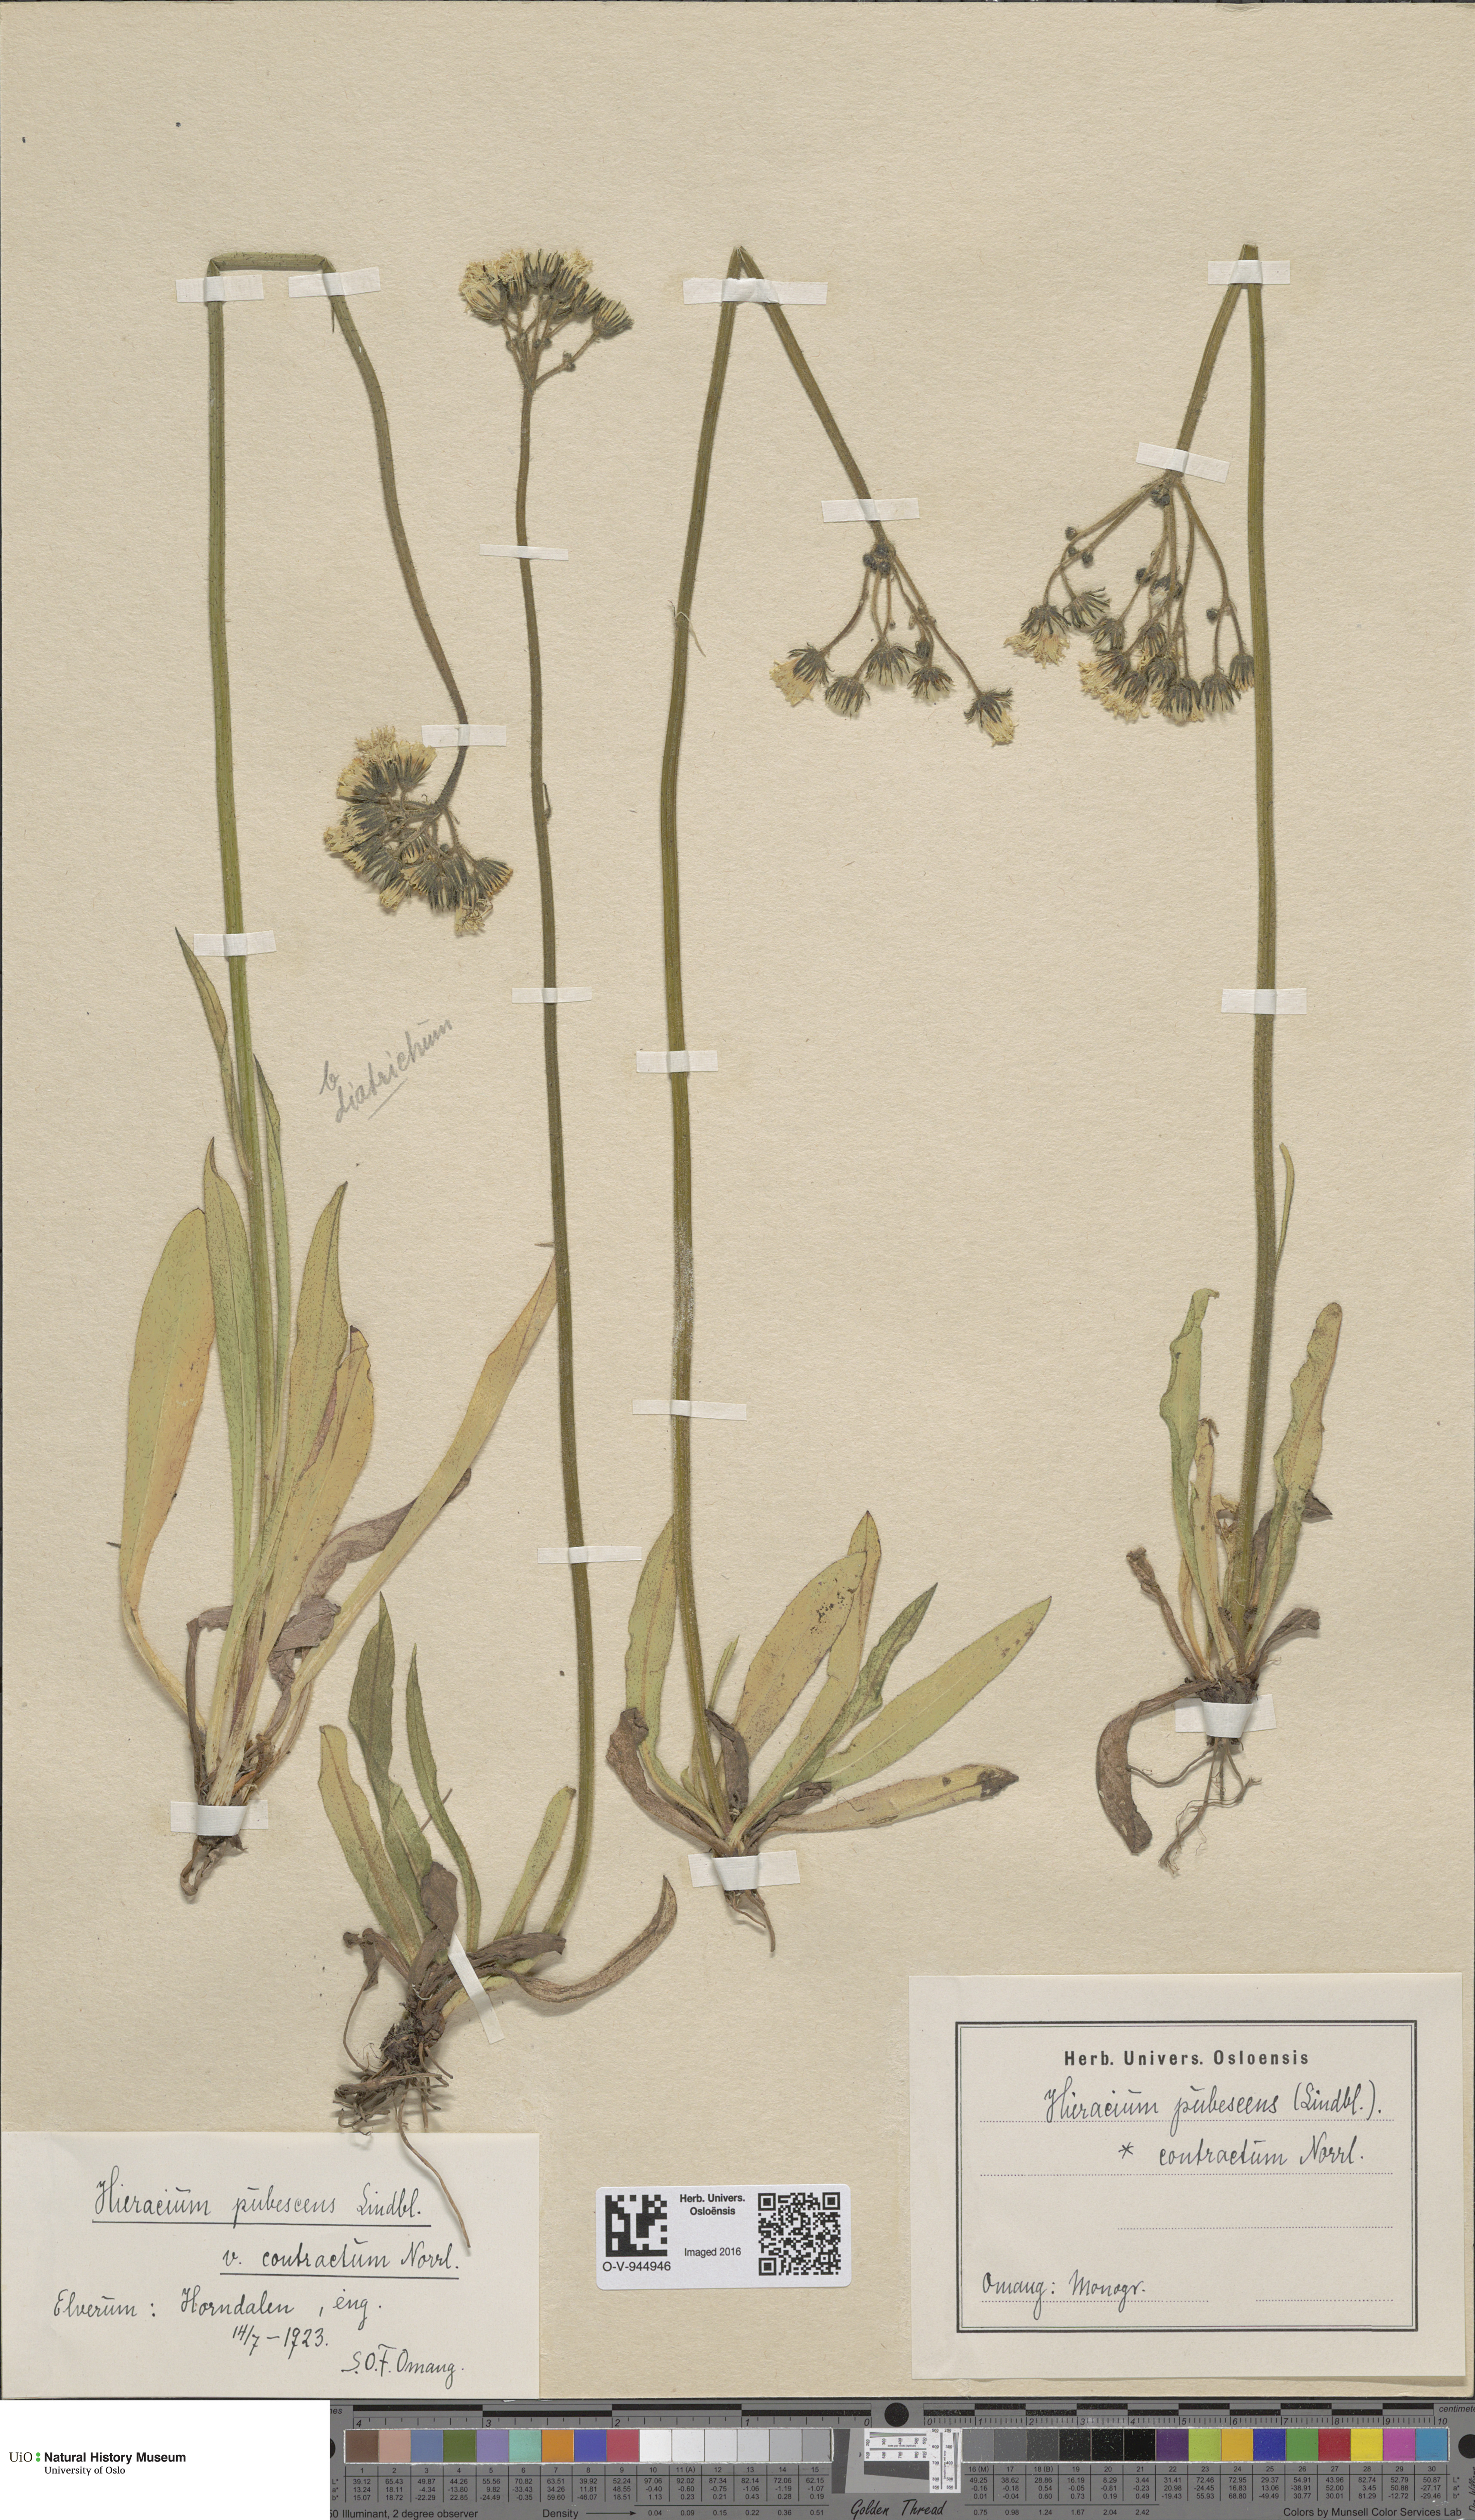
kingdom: Plantae
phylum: Tracheophyta
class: Magnoliopsida
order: Asterales
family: Asteraceae
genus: Pilosella
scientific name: Pilosella cymosa
